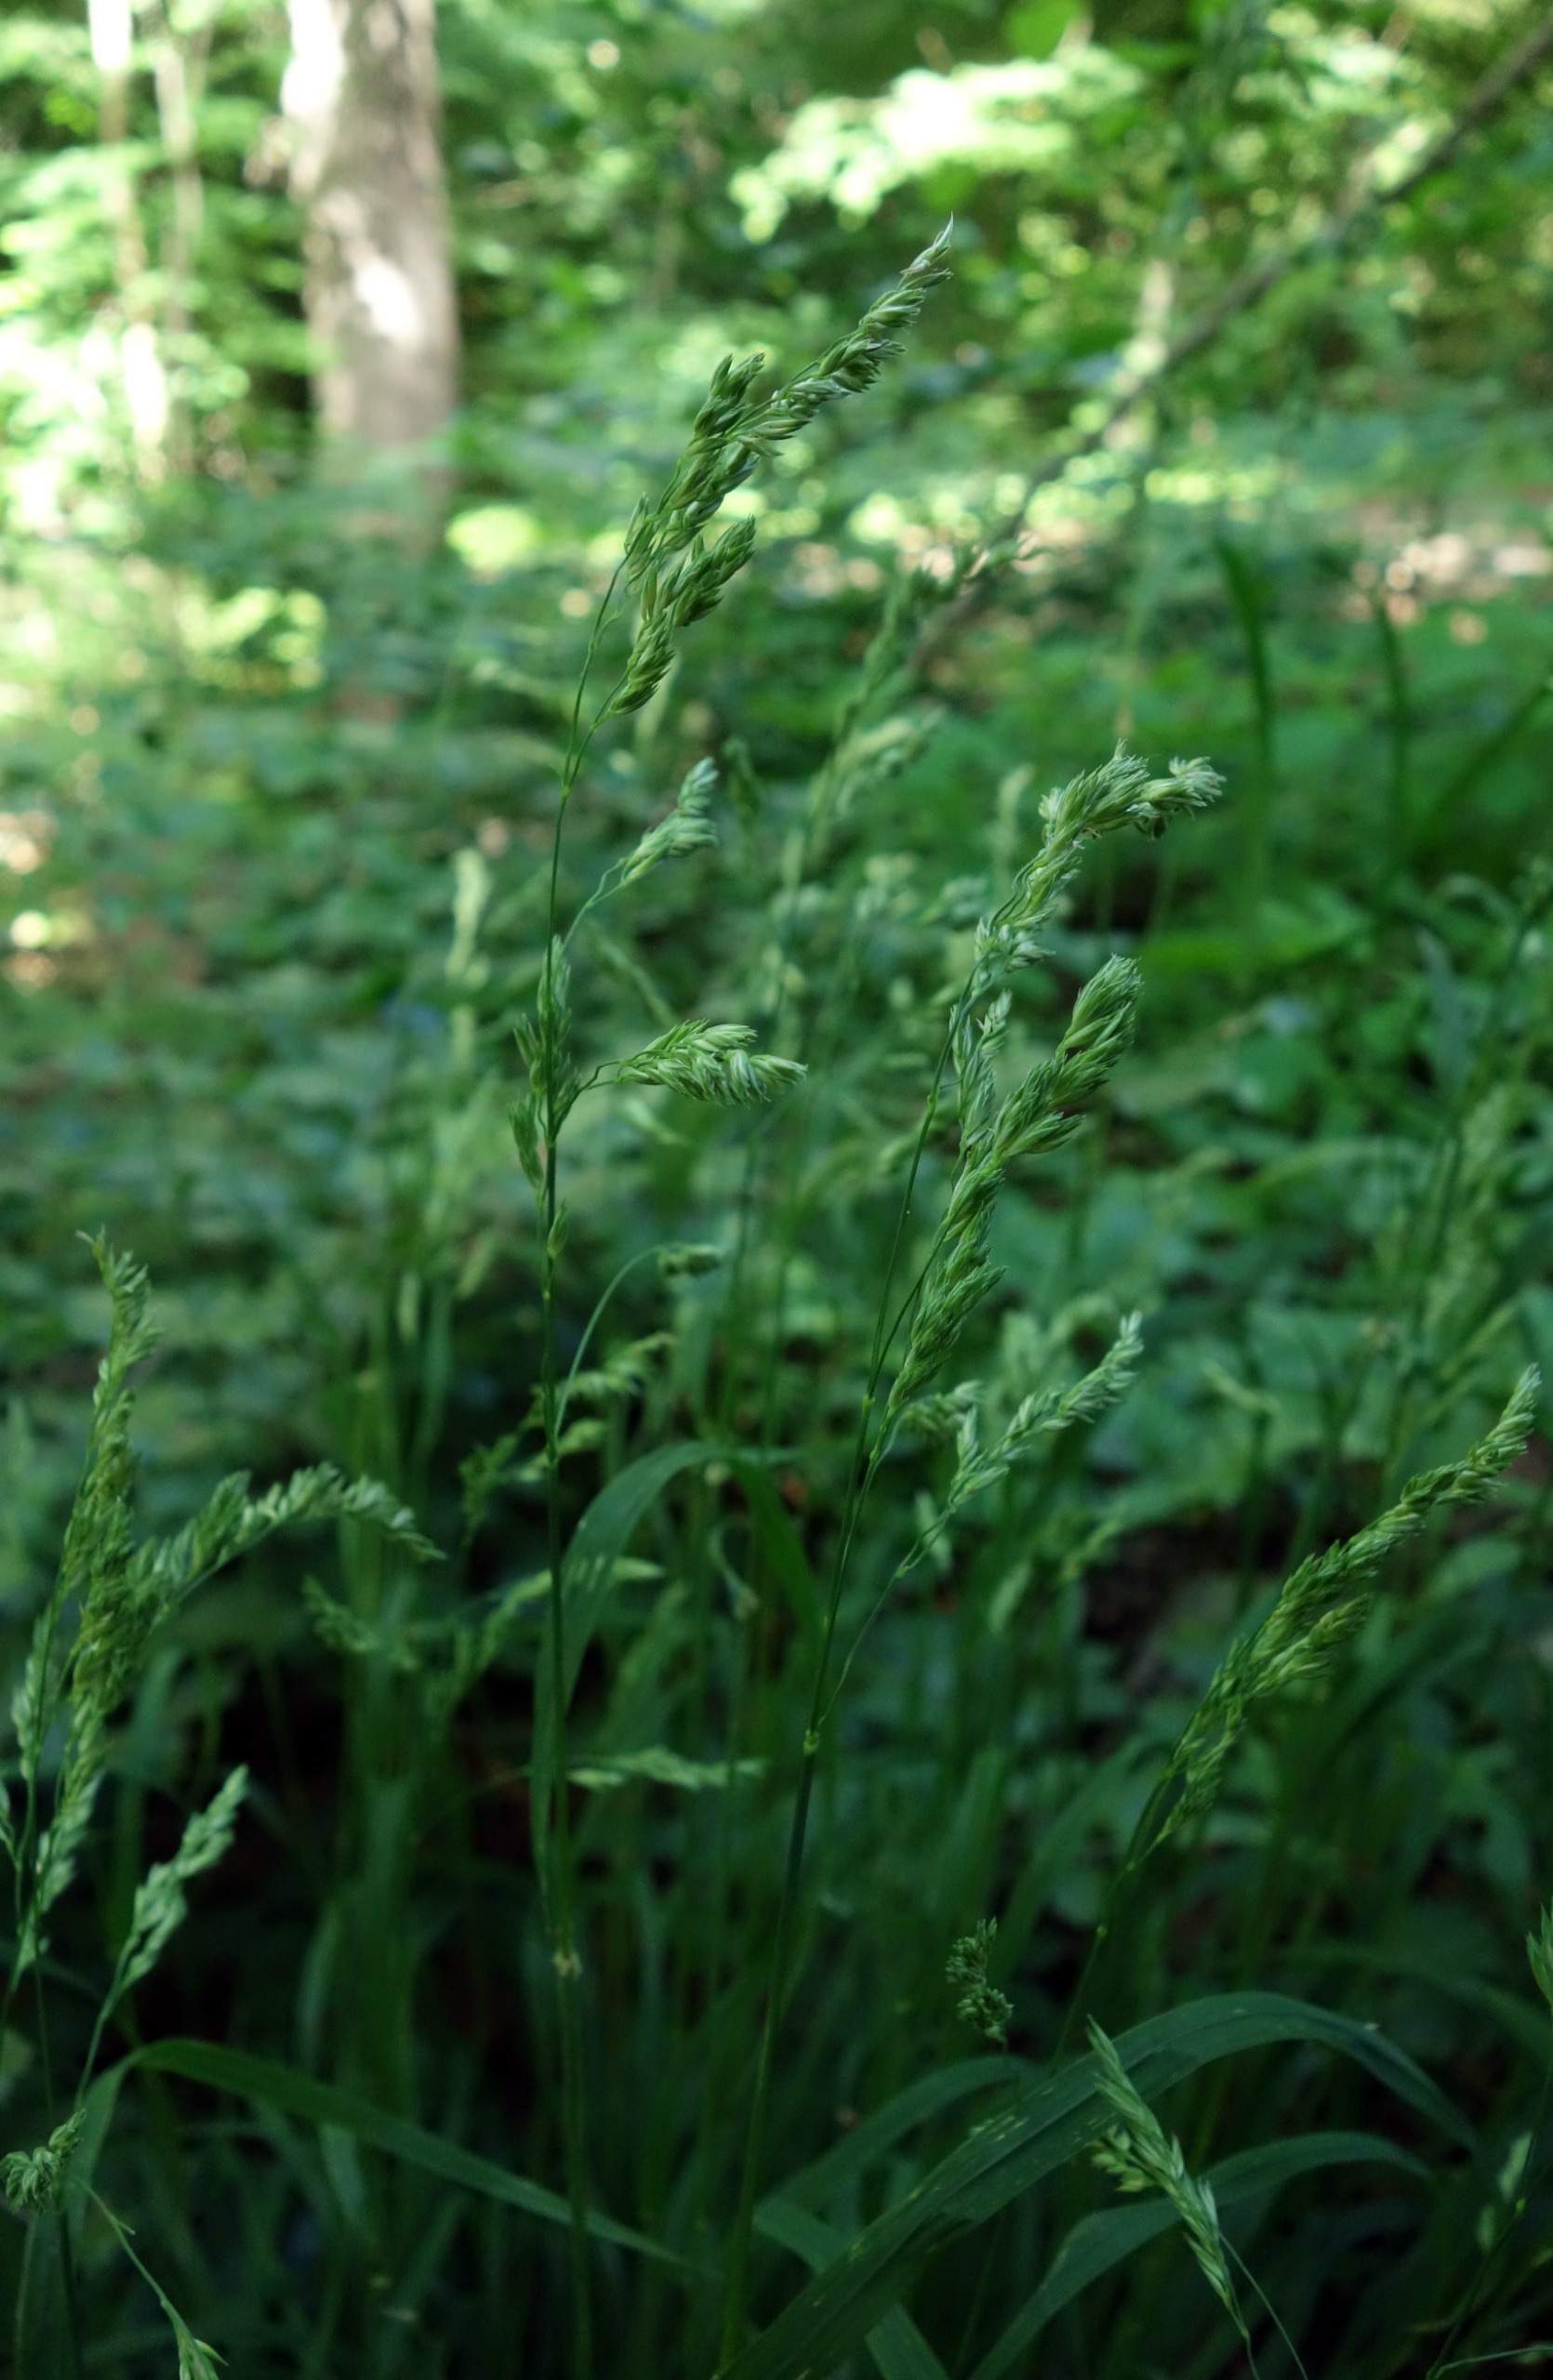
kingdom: Plantae
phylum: Tracheophyta
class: Liliopsida
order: Poales
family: Poaceae
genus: Dactylis
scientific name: Dactylis glomerata
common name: Skov-hundegræs
